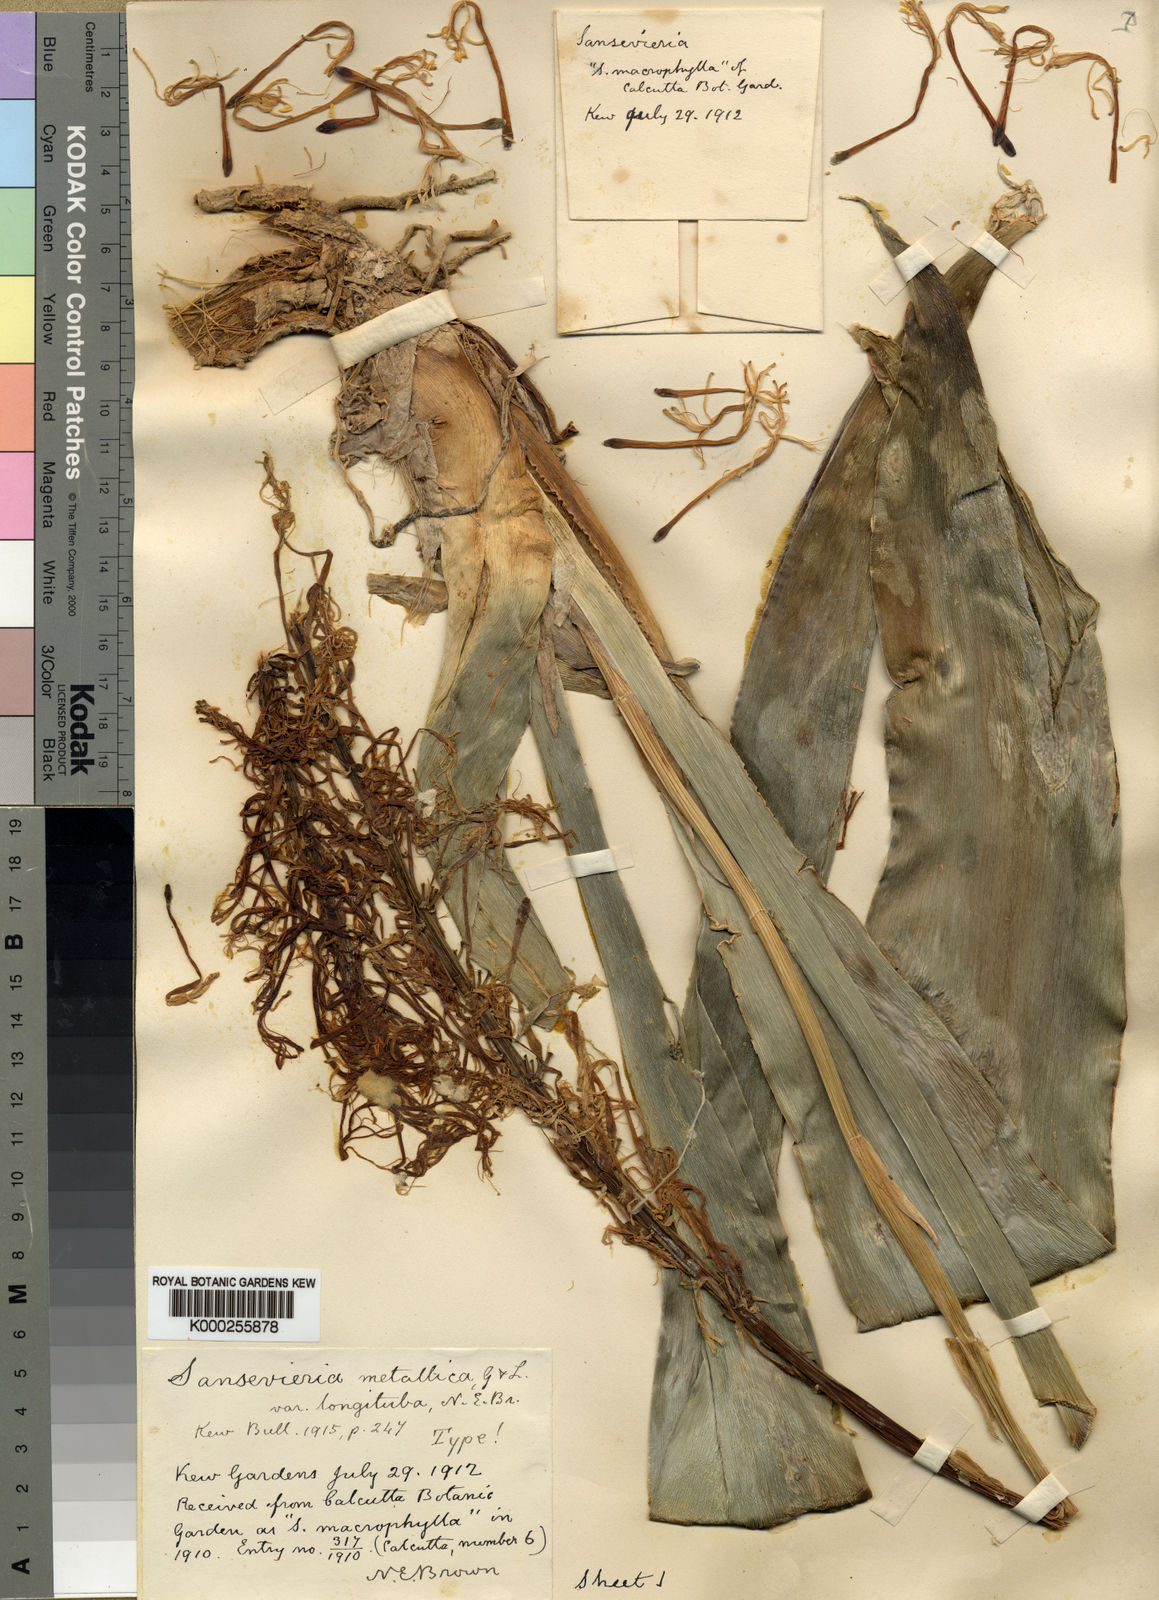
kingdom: Plantae
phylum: Tracheophyta
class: Liliopsida
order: Asparagales
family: Asparagaceae
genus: Dracaena
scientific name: Dracaena zebra
